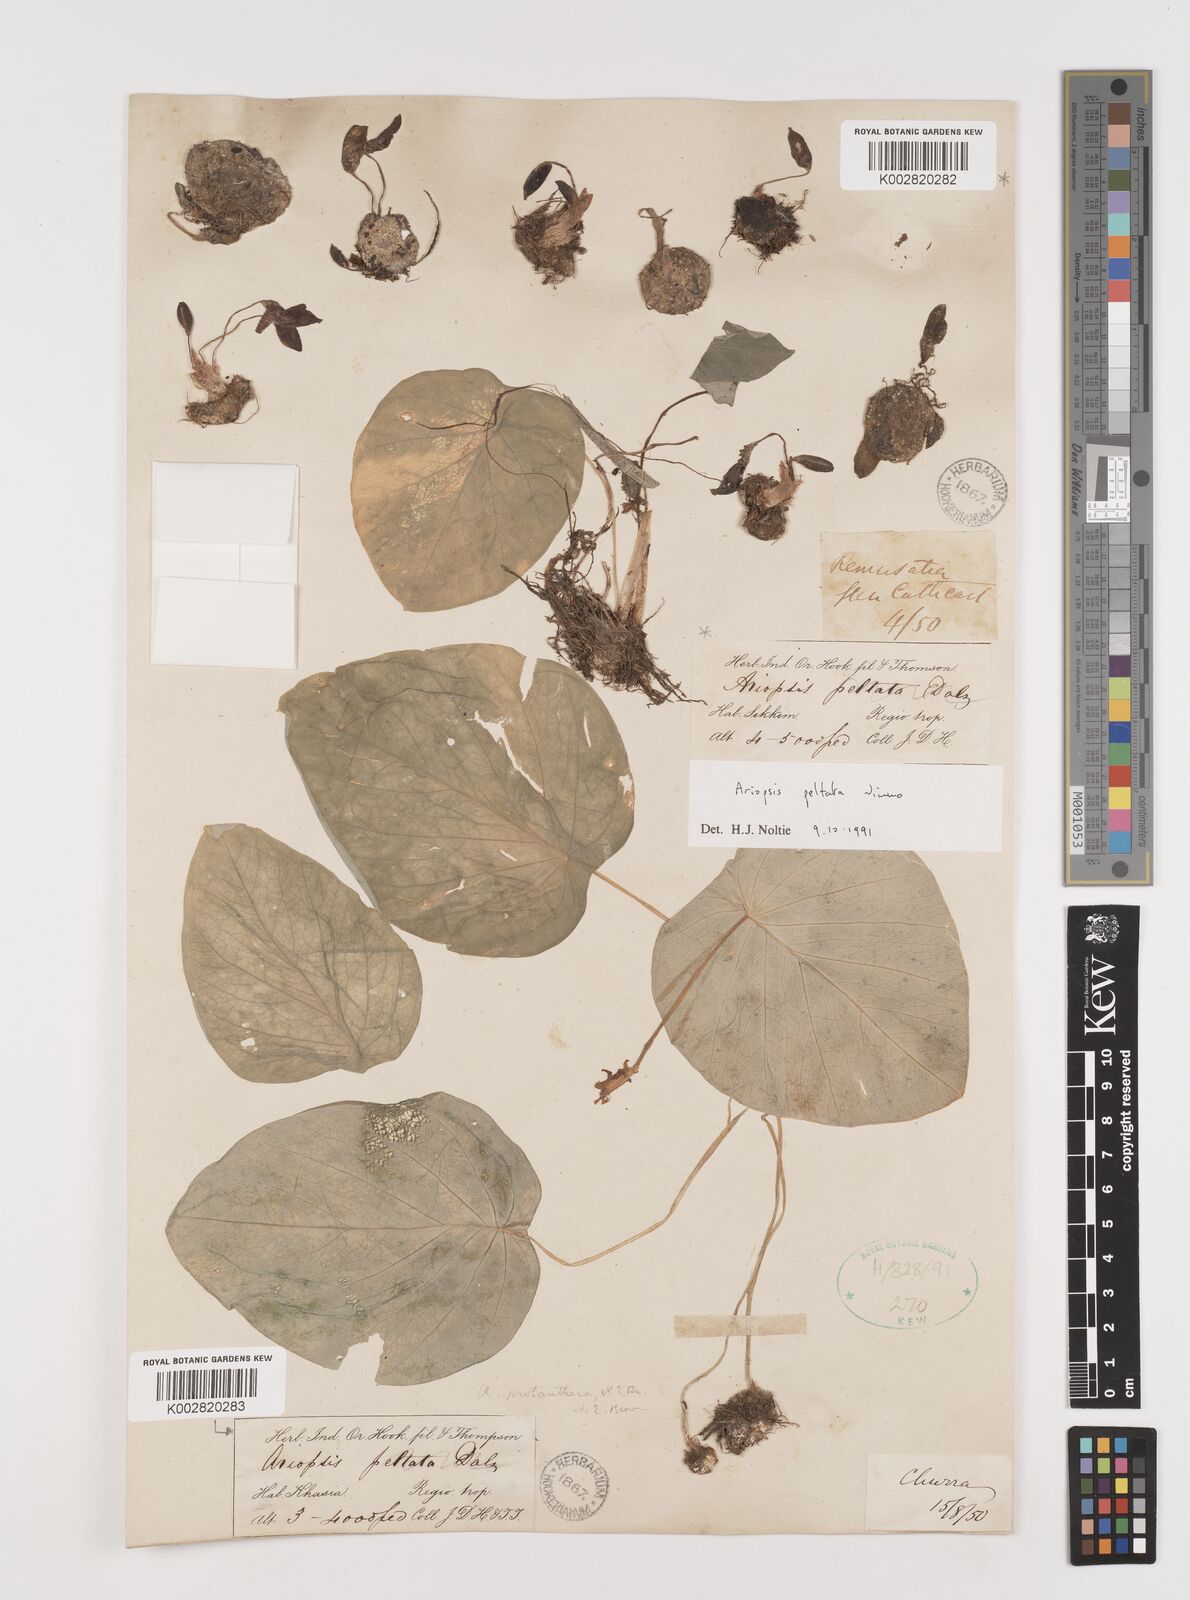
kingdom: Plantae
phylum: Tracheophyta
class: Liliopsida
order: Alismatales
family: Araceae
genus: Ariopsis
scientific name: Ariopsis peltata
